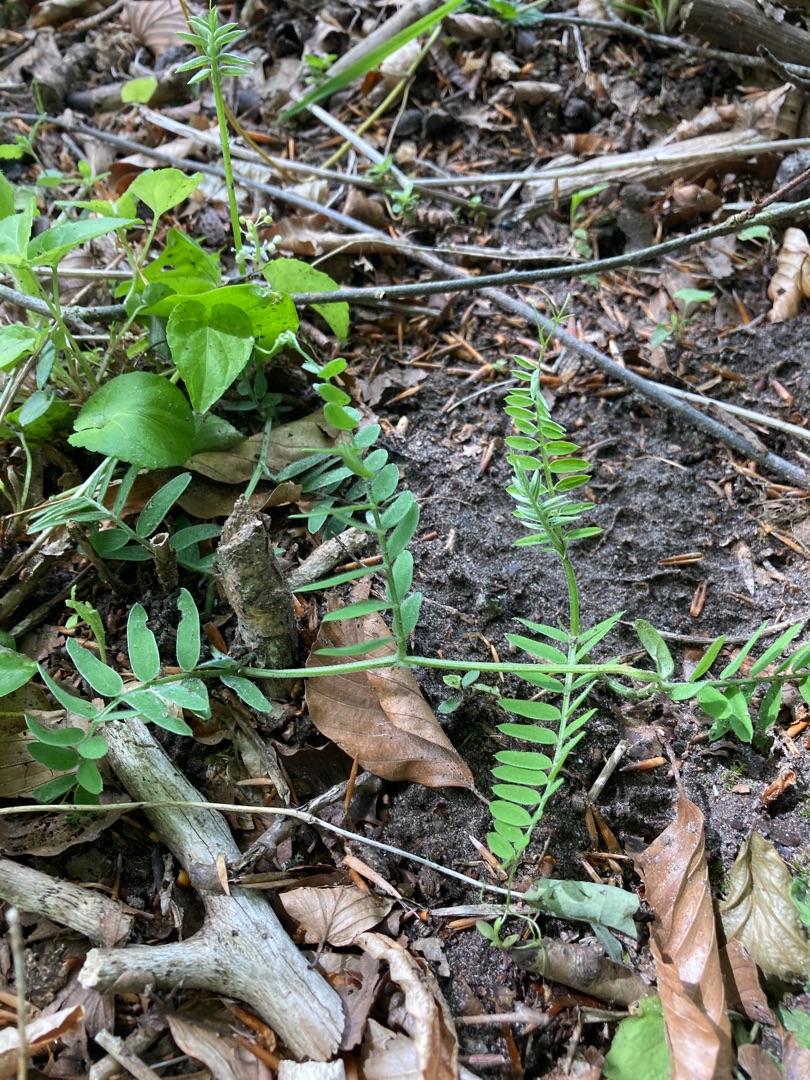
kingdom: Plantae
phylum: Tracheophyta
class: Magnoliopsida
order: Fabales
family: Fabaceae
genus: Vicia
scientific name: Vicia cracca
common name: Muse-vikke
